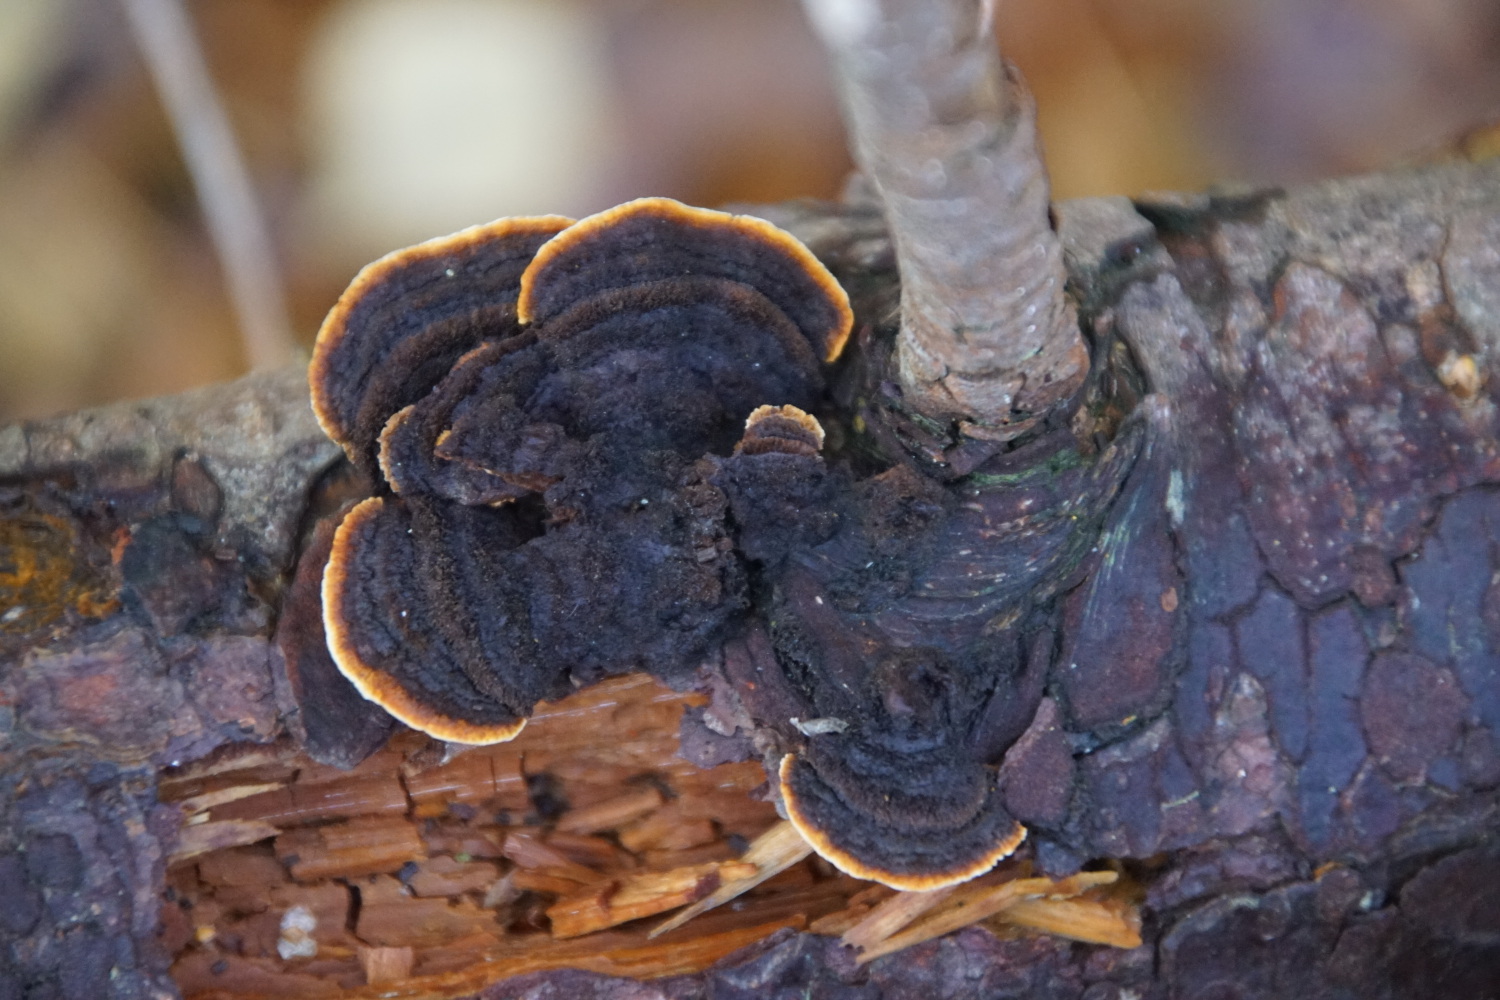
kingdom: Fungi
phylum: Basidiomycota
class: Agaricomycetes
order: Gloeophyllales
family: Gloeophyllaceae
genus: Gloeophyllum
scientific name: Gloeophyllum sepiarium
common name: fyrre-korkhat
